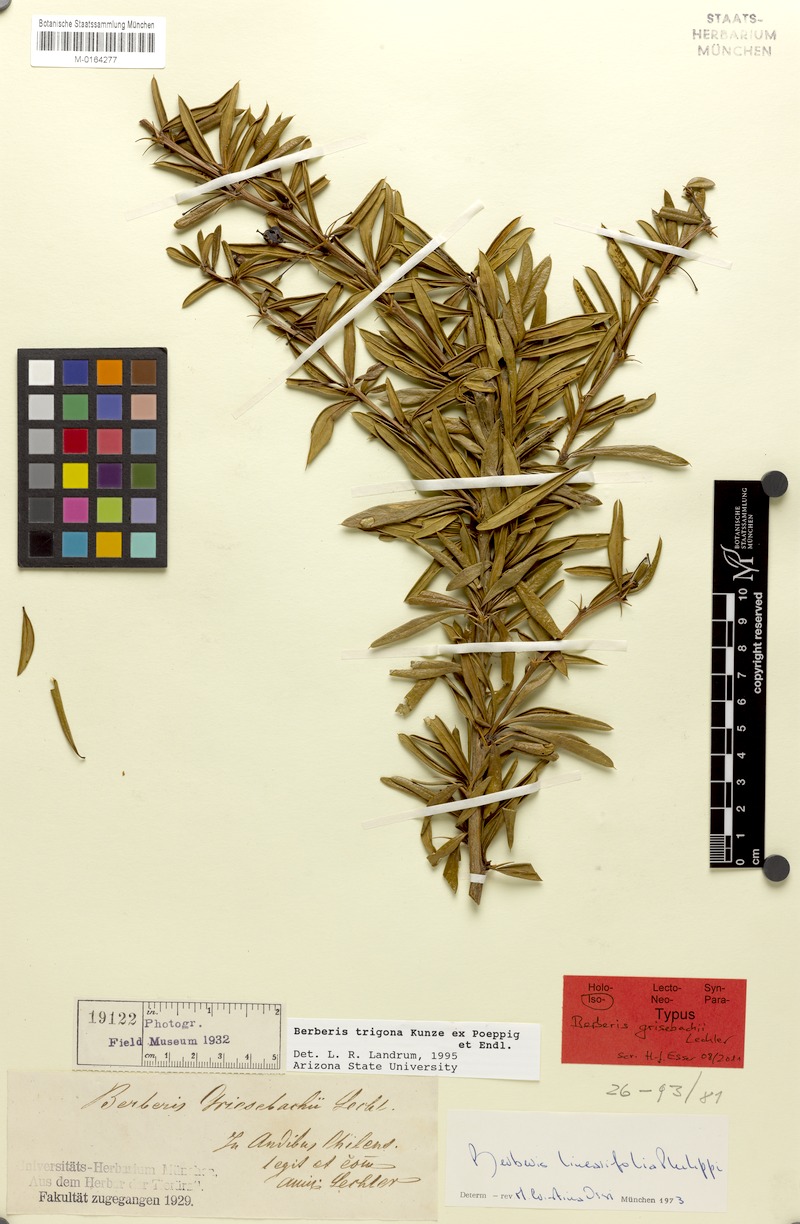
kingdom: Plantae
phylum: Tracheophyta
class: Magnoliopsida
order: Ranunculales
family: Berberidaceae
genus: Berberis
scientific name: Berberis trigona
